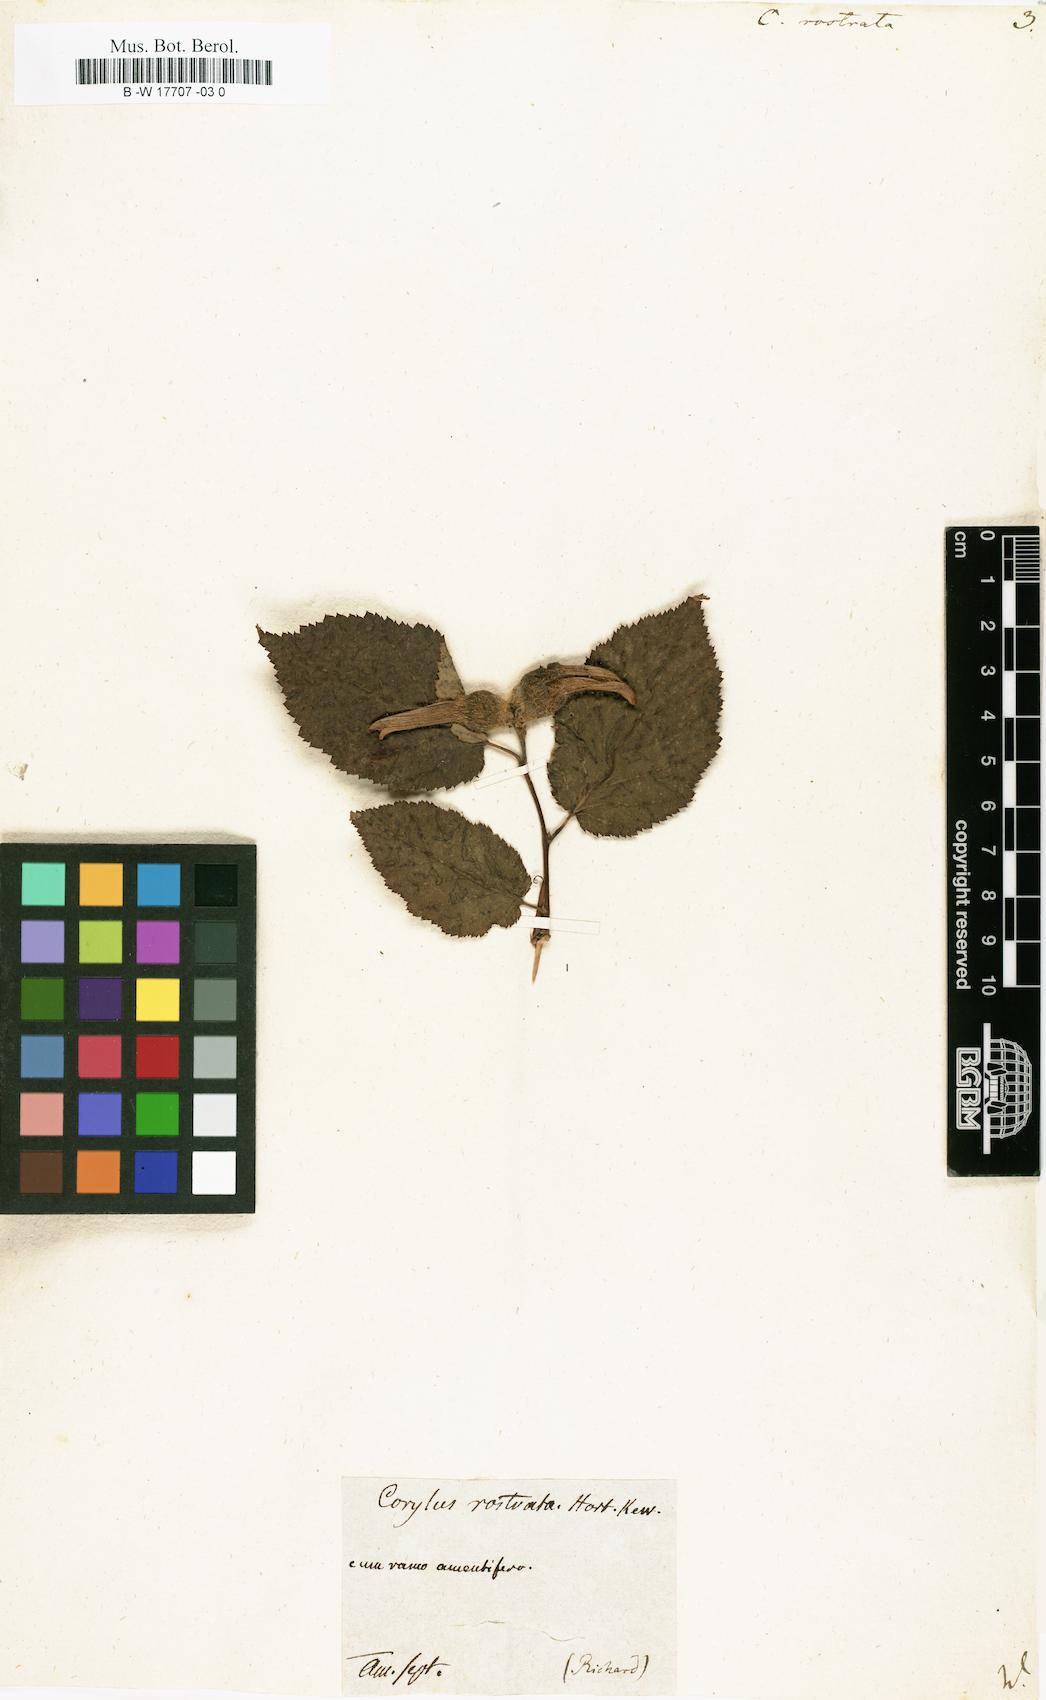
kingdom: Plantae
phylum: Tracheophyta
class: Magnoliopsida
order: Fagales
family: Betulaceae
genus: Corylus
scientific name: Corylus cornuta
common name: Beaked hazel
